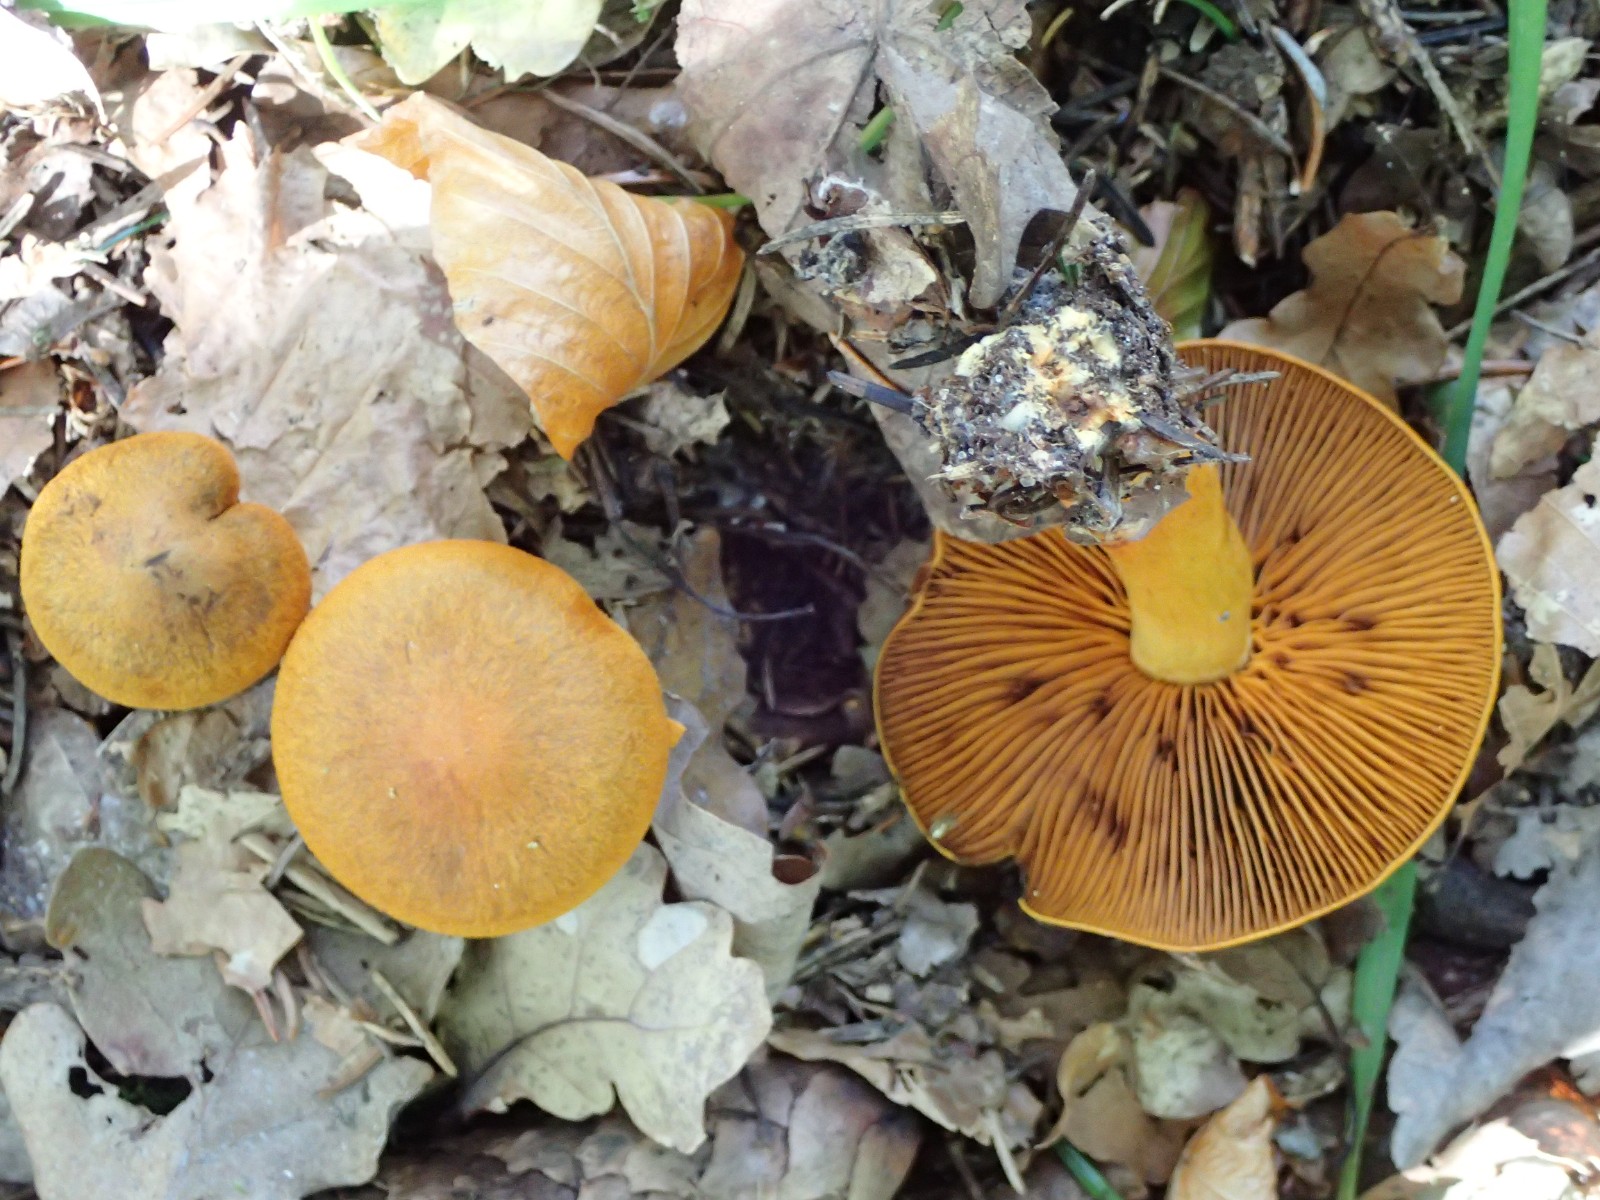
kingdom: Fungi
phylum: Basidiomycota
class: Agaricomycetes
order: Agaricales
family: Cortinariaceae
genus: Cortinarius
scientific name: Cortinarius malicorius
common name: grønkødet slørhat
